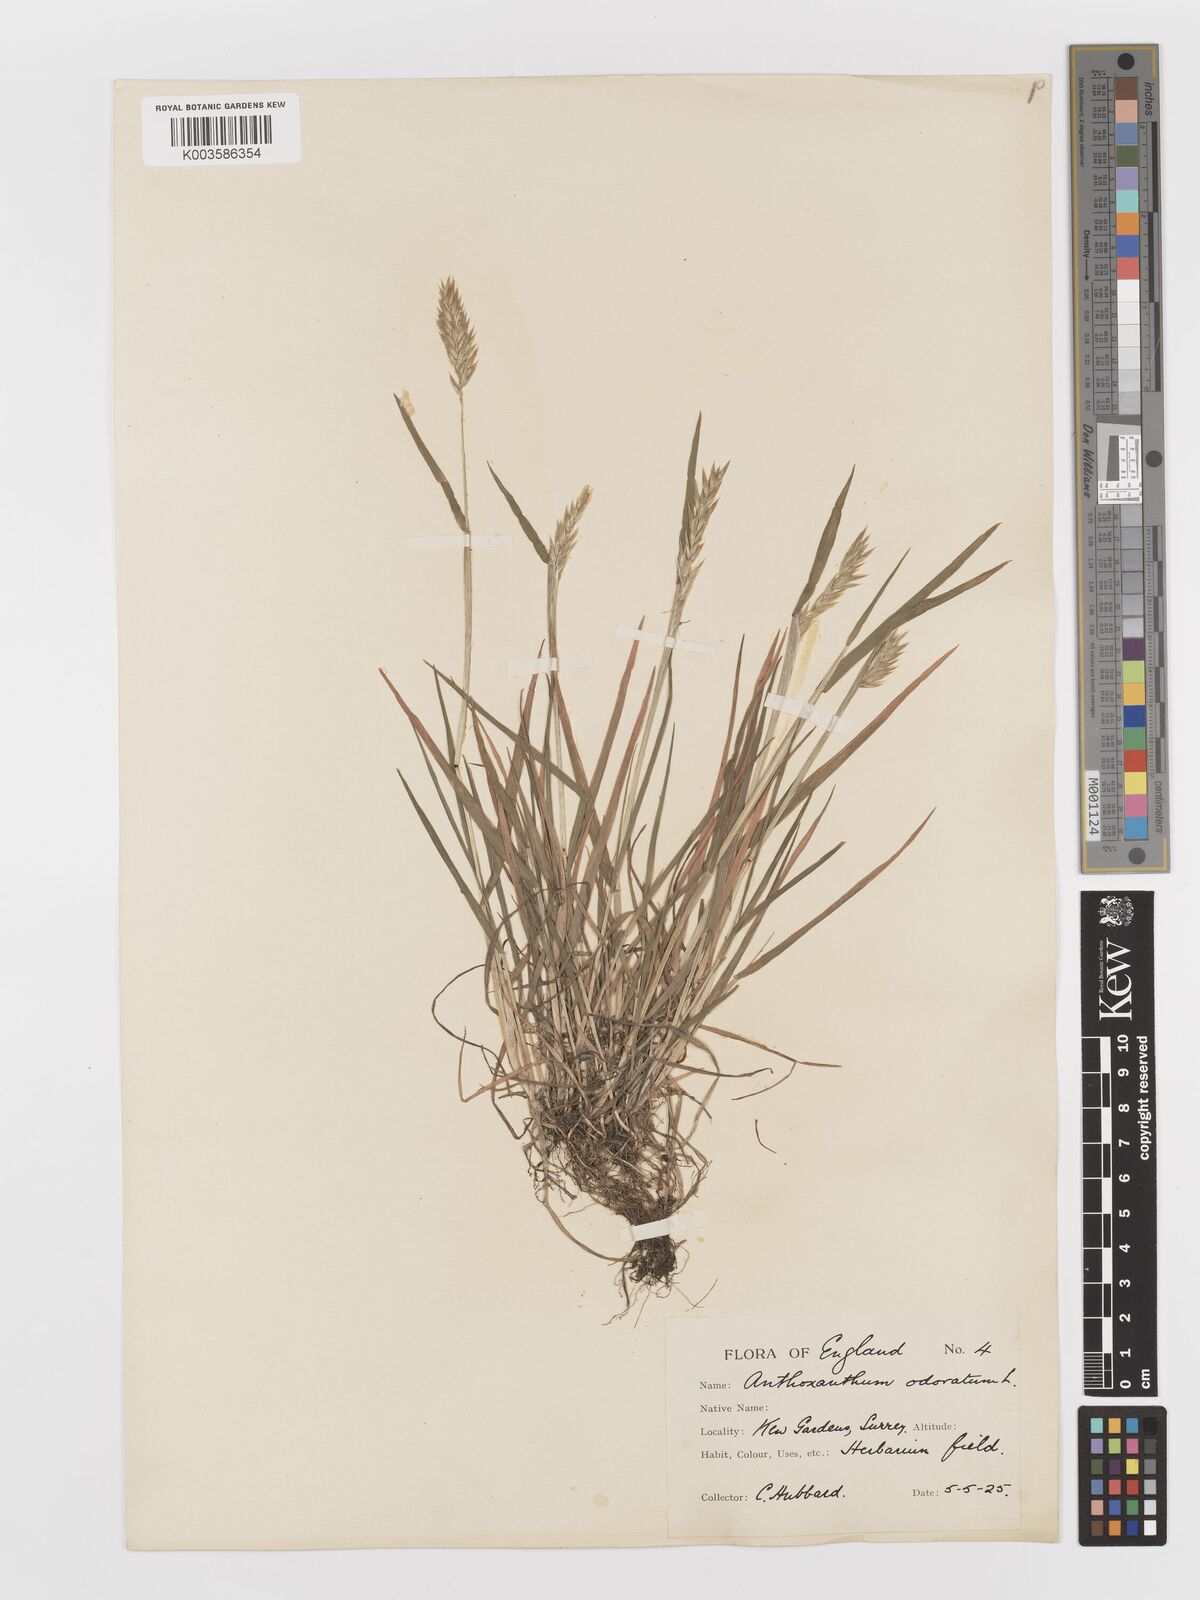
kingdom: Plantae
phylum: Tracheophyta
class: Liliopsida
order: Poales
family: Poaceae
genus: Anthoxanthum
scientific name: Anthoxanthum odoratum
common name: Sweet vernalgrass
